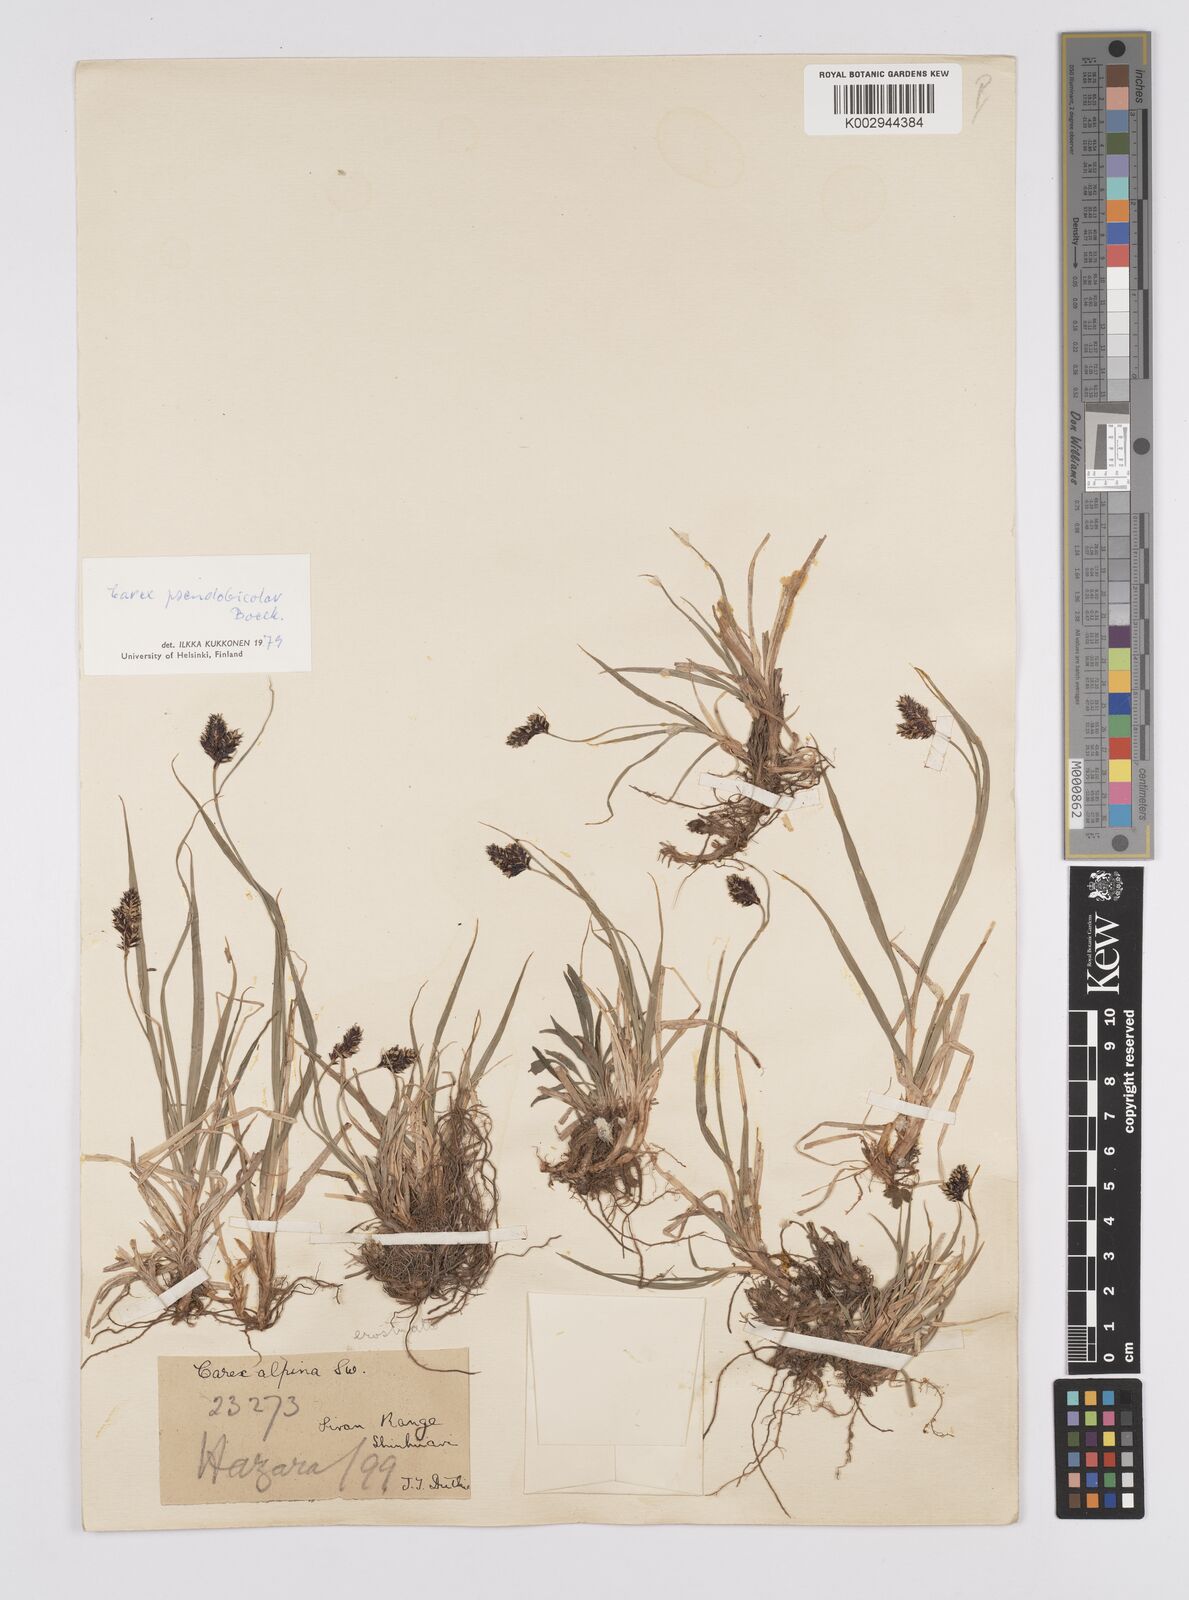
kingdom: Plantae
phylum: Tracheophyta
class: Liliopsida
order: Poales
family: Cyperaceae
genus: Carex
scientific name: Carex norvegica
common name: Close-headed alpine-sedge
